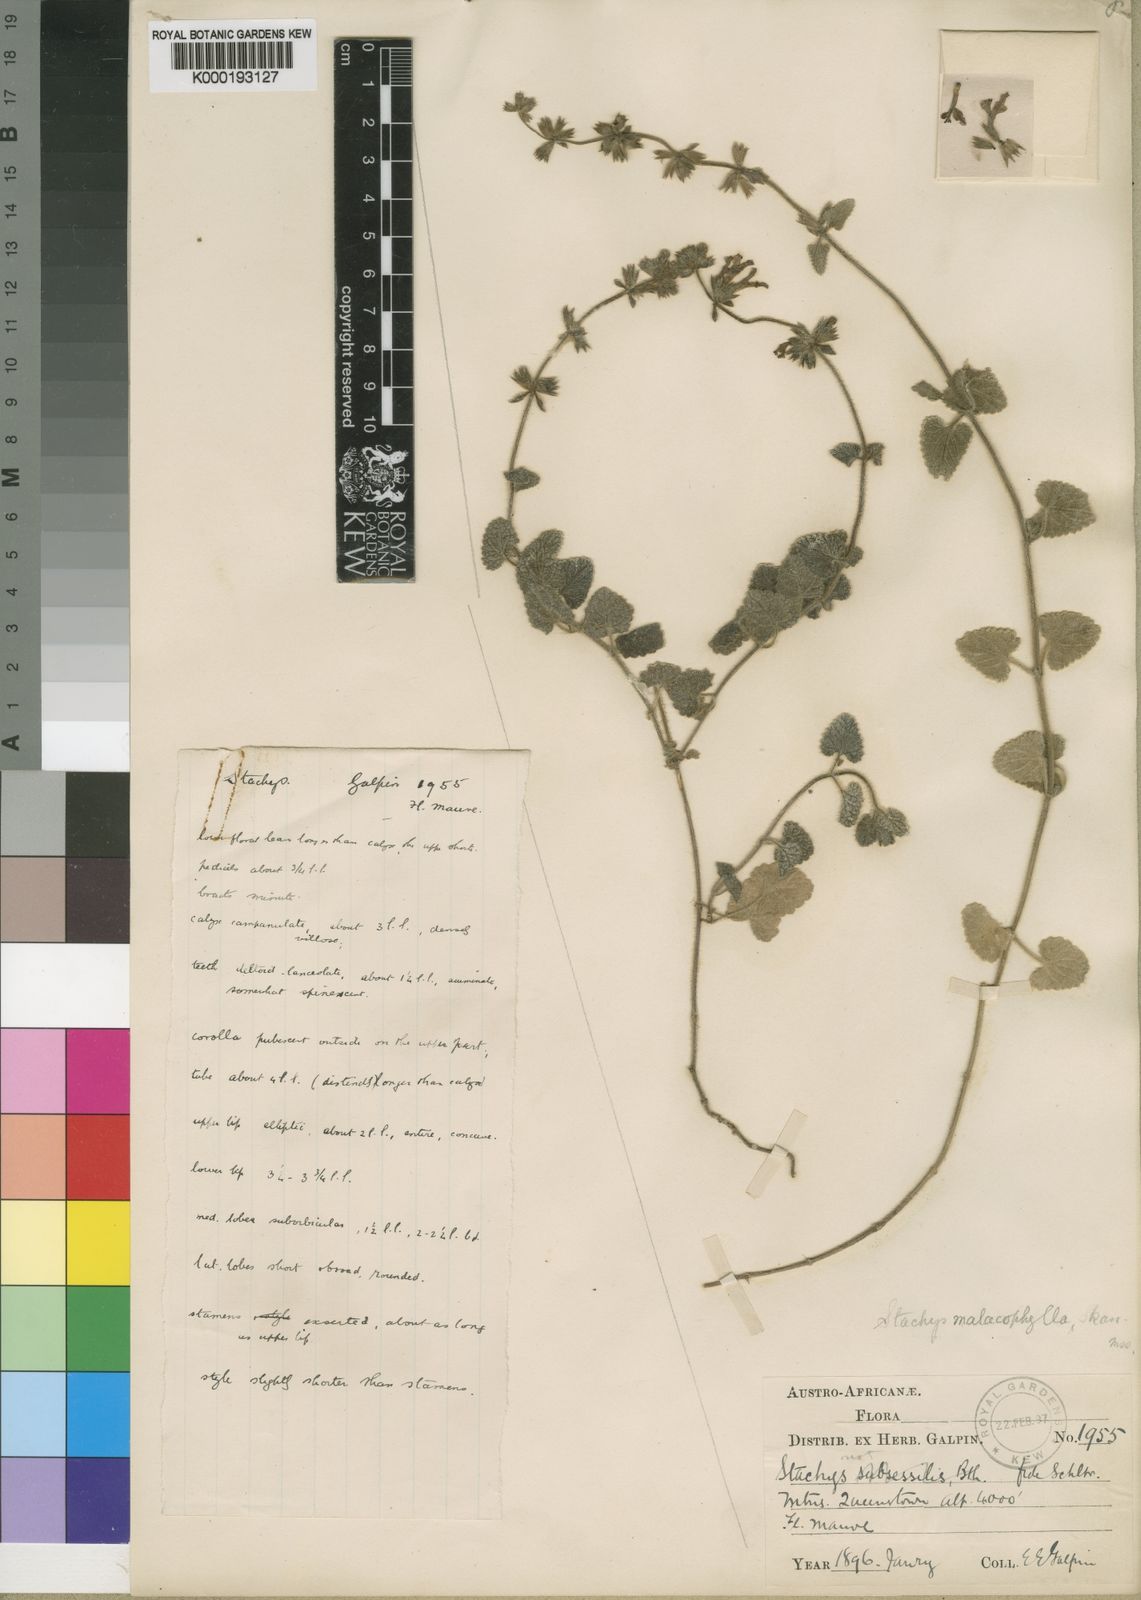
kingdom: Plantae
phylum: Tracheophyta
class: Magnoliopsida
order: Lamiales
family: Lamiaceae
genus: Stachys
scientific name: Stachys malacophylla
